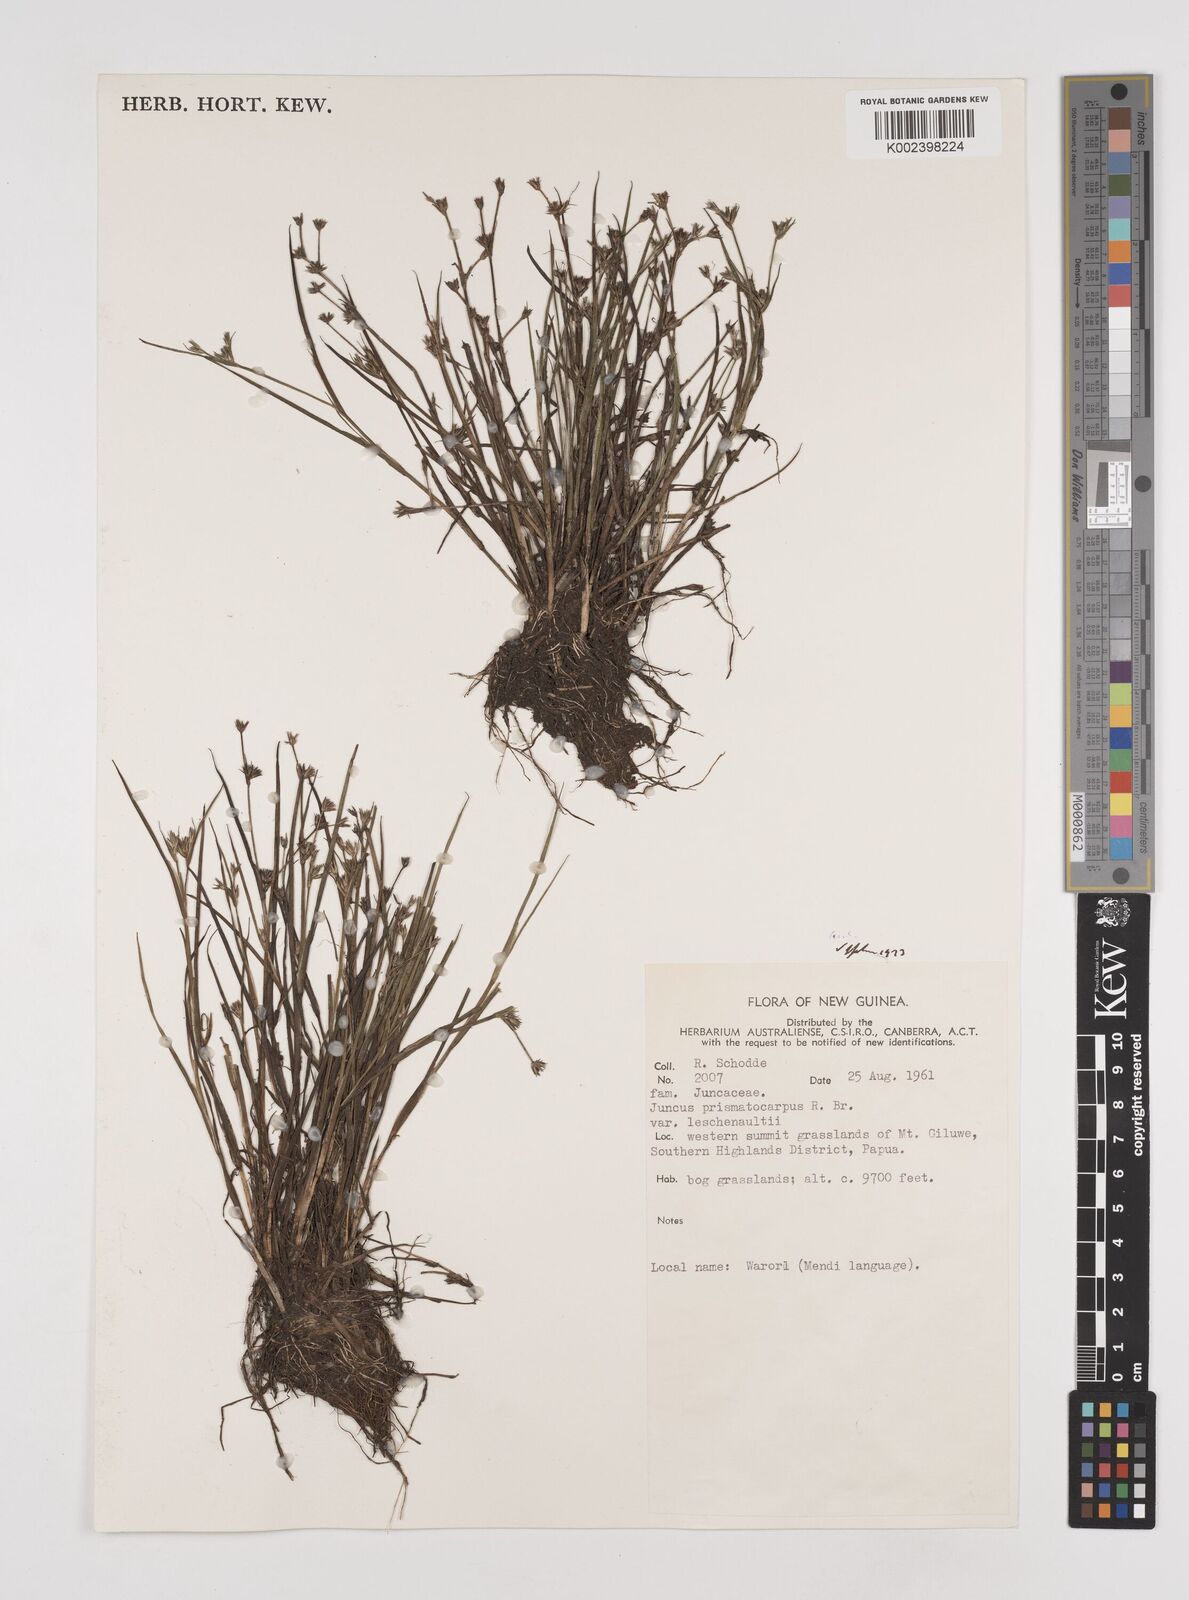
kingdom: Plantae
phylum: Tracheophyta
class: Liliopsida
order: Poales
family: Juncaceae
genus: Juncus
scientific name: Juncus prismatocarpus
